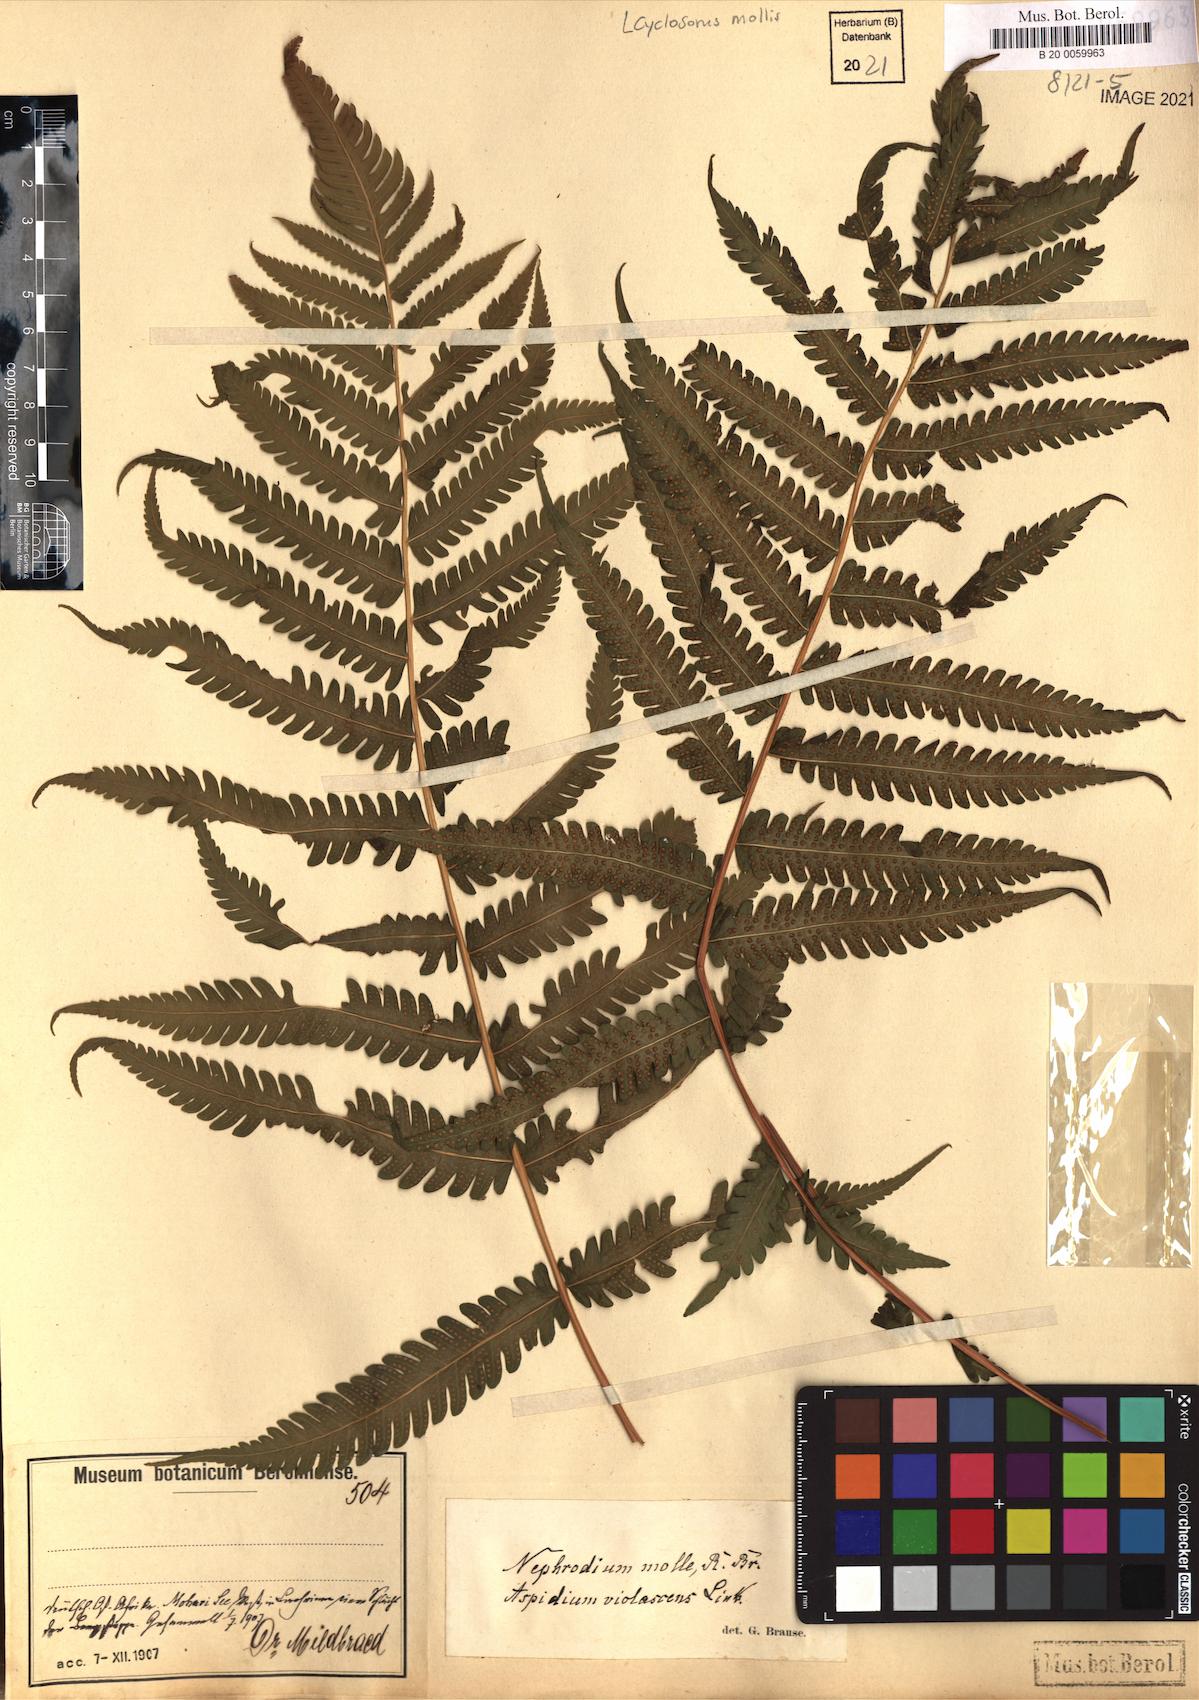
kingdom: Plantae
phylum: Tracheophyta
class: Polypodiopsida
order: Polypodiales
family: Thelypteridaceae
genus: Christella
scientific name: Christella dentata
